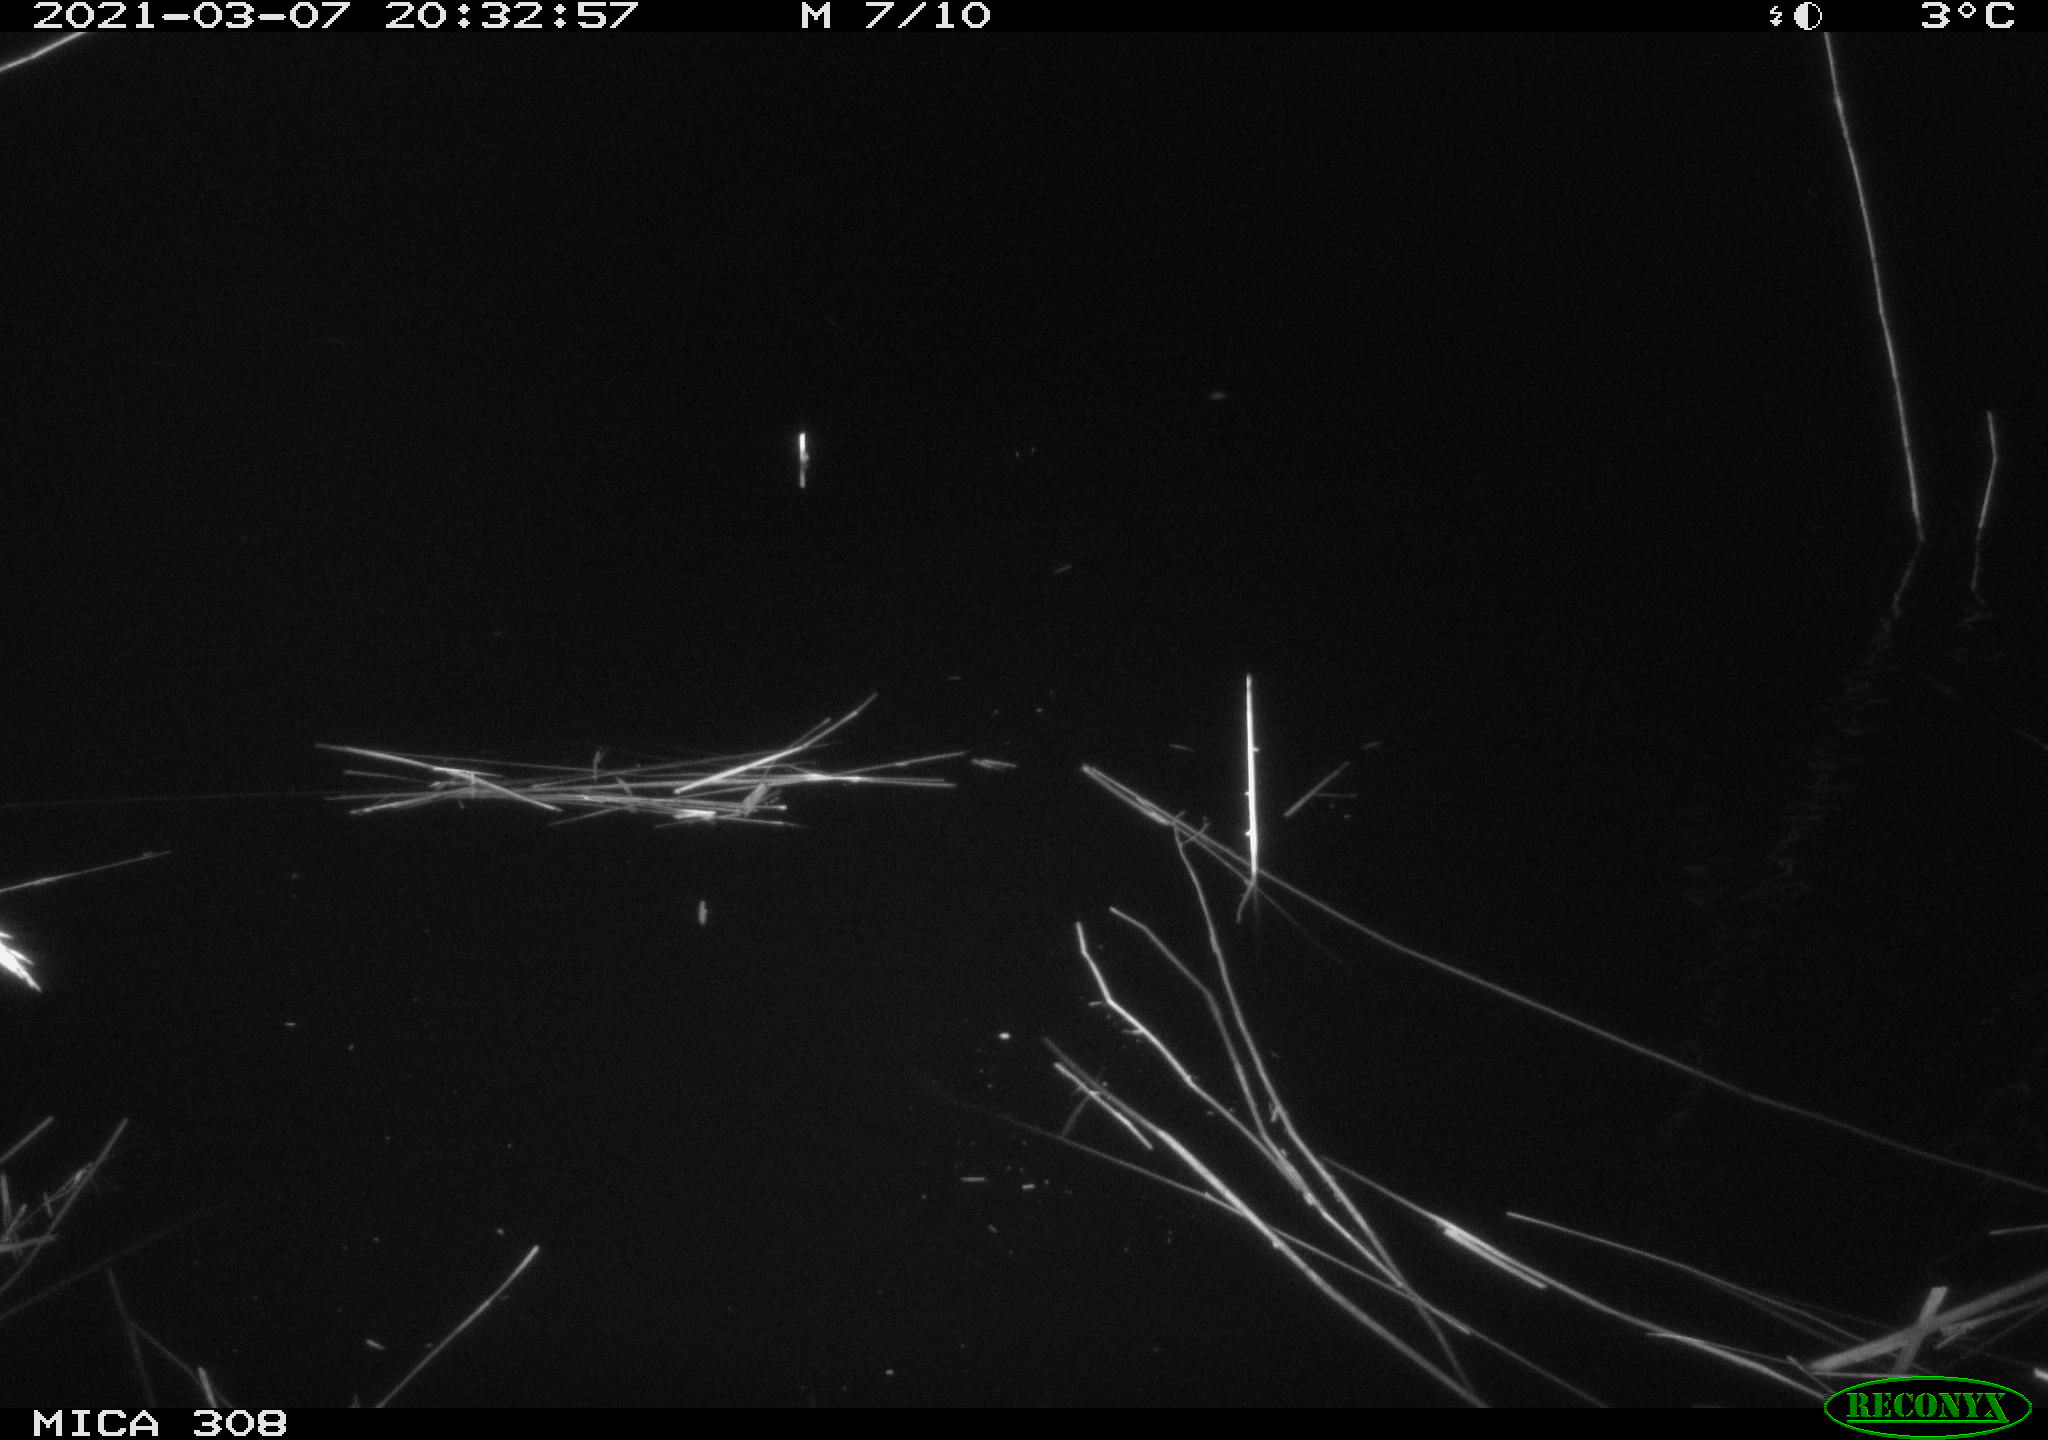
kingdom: Animalia
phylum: Chordata
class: Mammalia
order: Rodentia
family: Cricetidae
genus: Ondatra
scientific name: Ondatra zibethicus
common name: Muskrat
